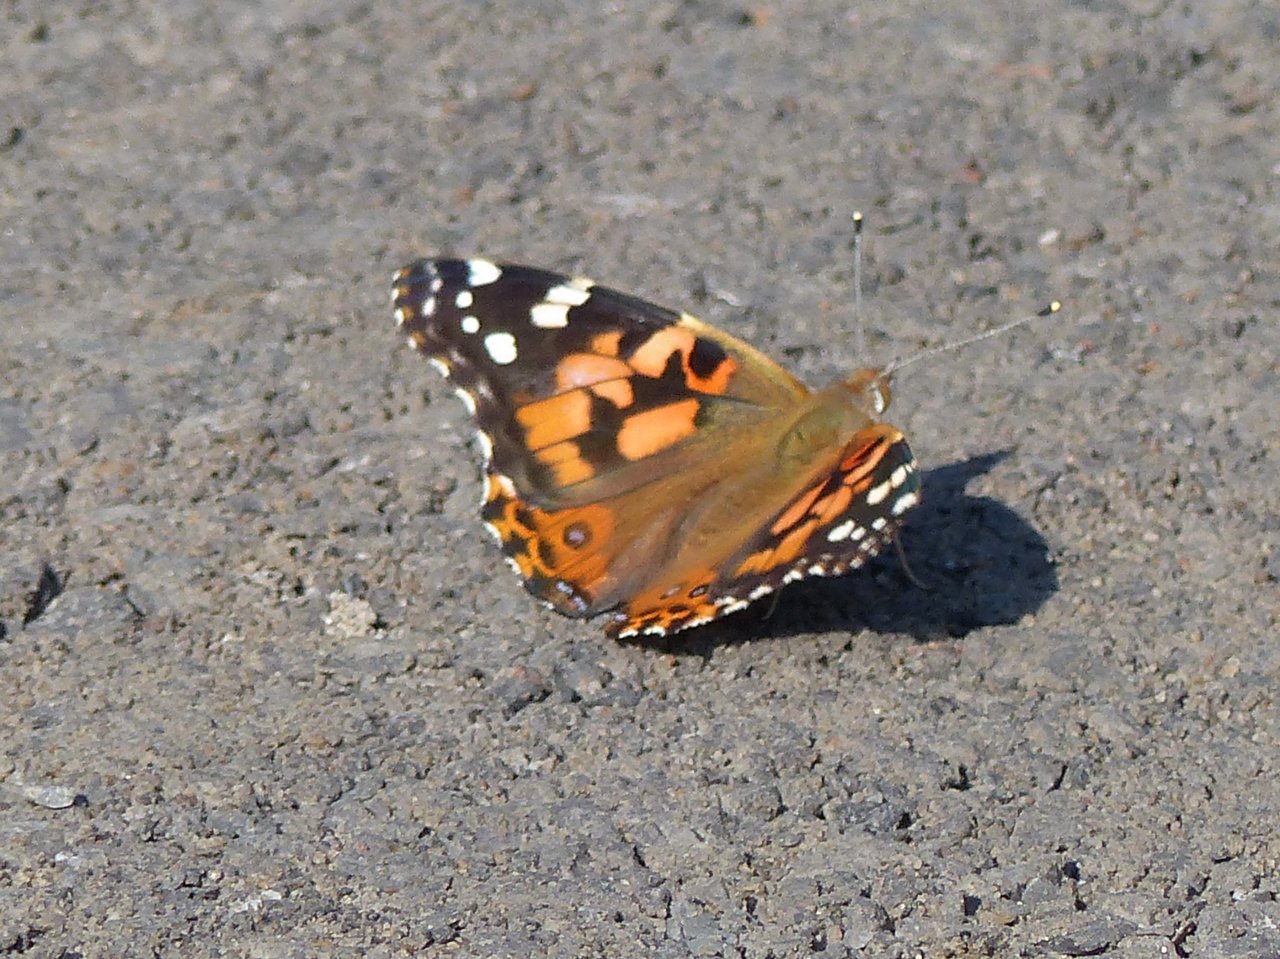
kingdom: Animalia
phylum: Arthropoda
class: Insecta
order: Lepidoptera
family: Nymphalidae
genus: Vanessa
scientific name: Vanessa cardui
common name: Painted Lady
